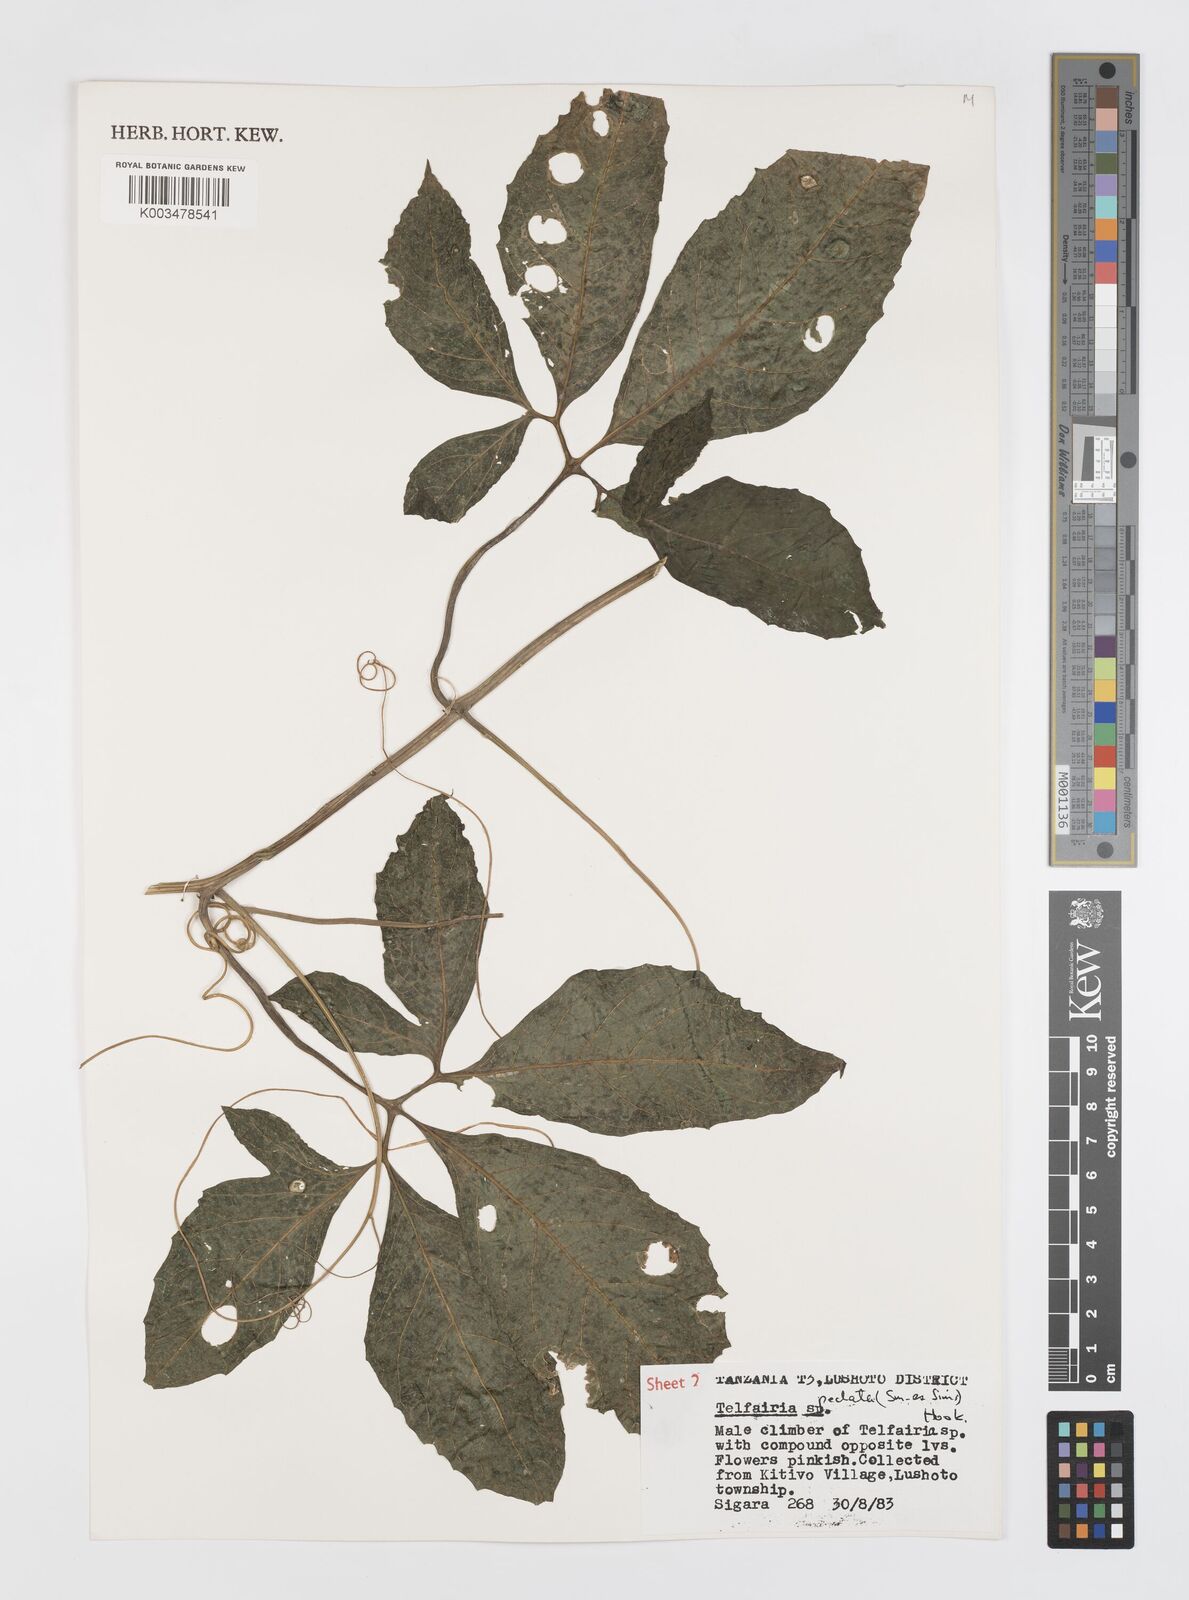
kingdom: Plantae
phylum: Tracheophyta
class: Magnoliopsida
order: Cucurbitales
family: Cucurbitaceae
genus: Telfairia
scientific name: Telfairia pedata
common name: Zanzibar oilvine
